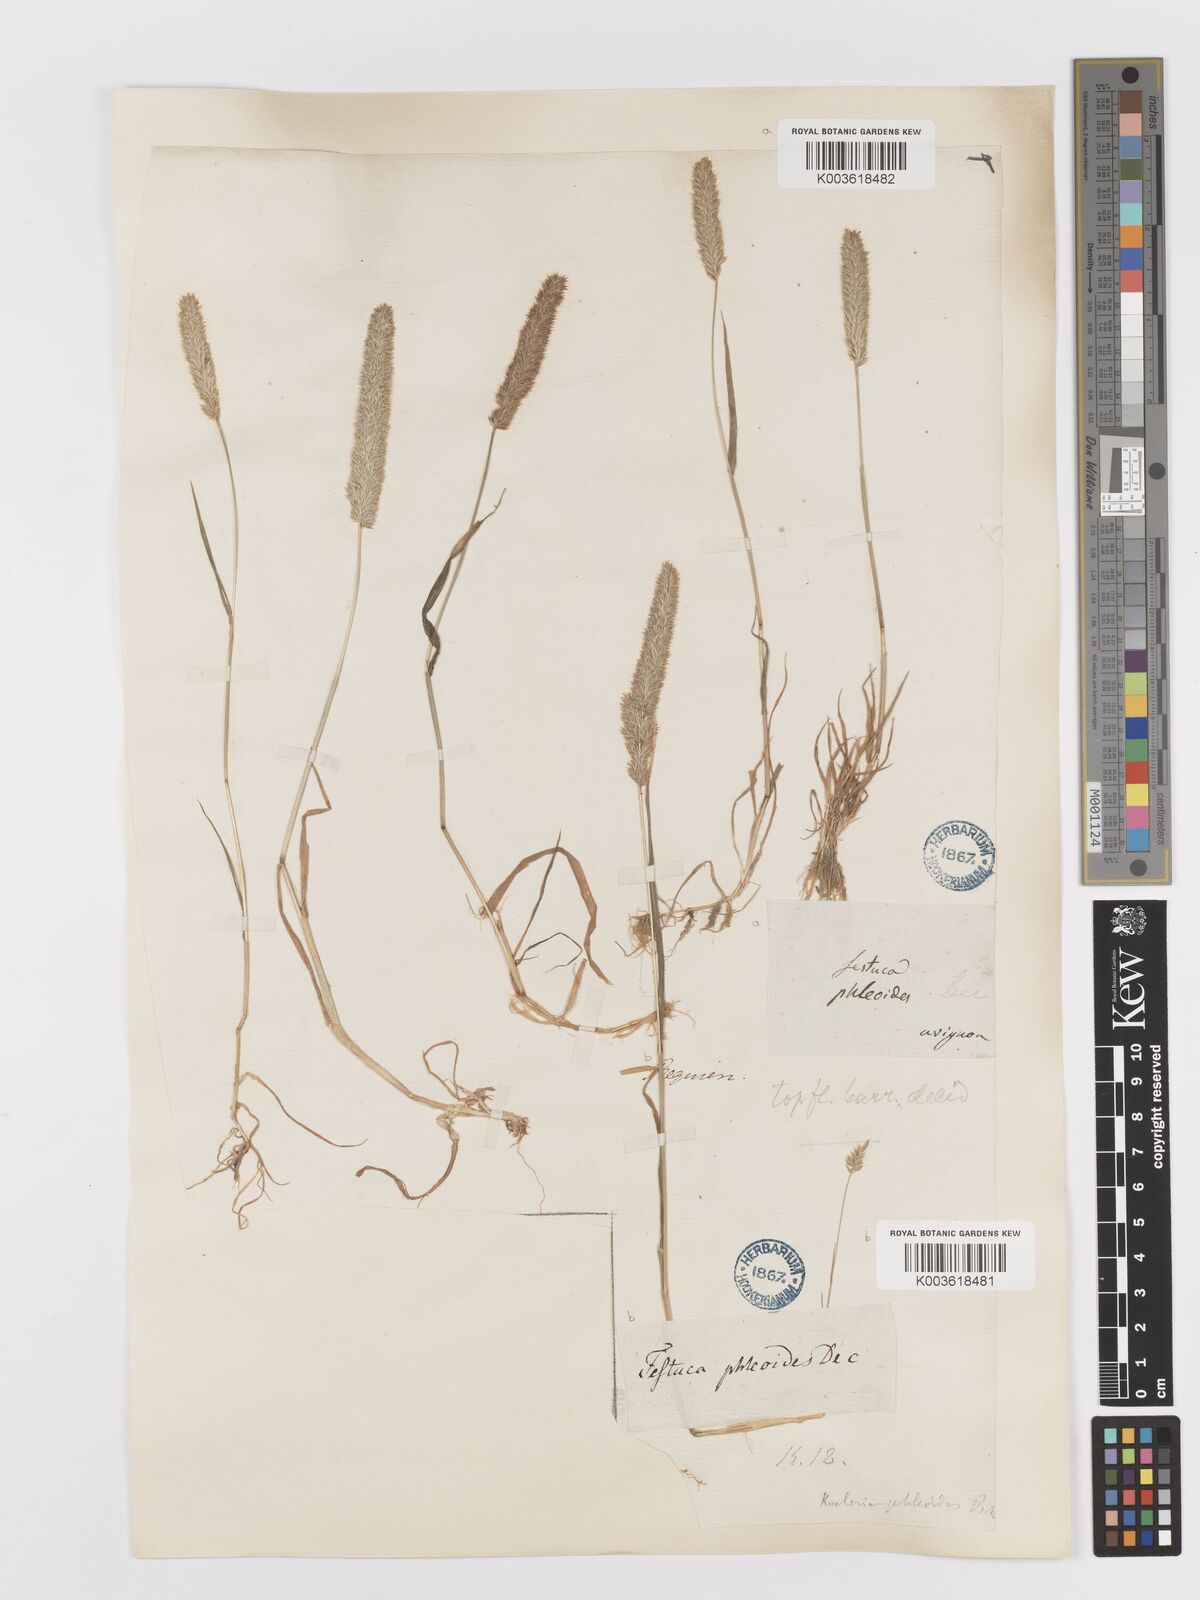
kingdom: Plantae
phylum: Tracheophyta
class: Liliopsida
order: Poales
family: Poaceae
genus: Rostraria
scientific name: Rostraria cristata
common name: Mediterranean hair-grass
